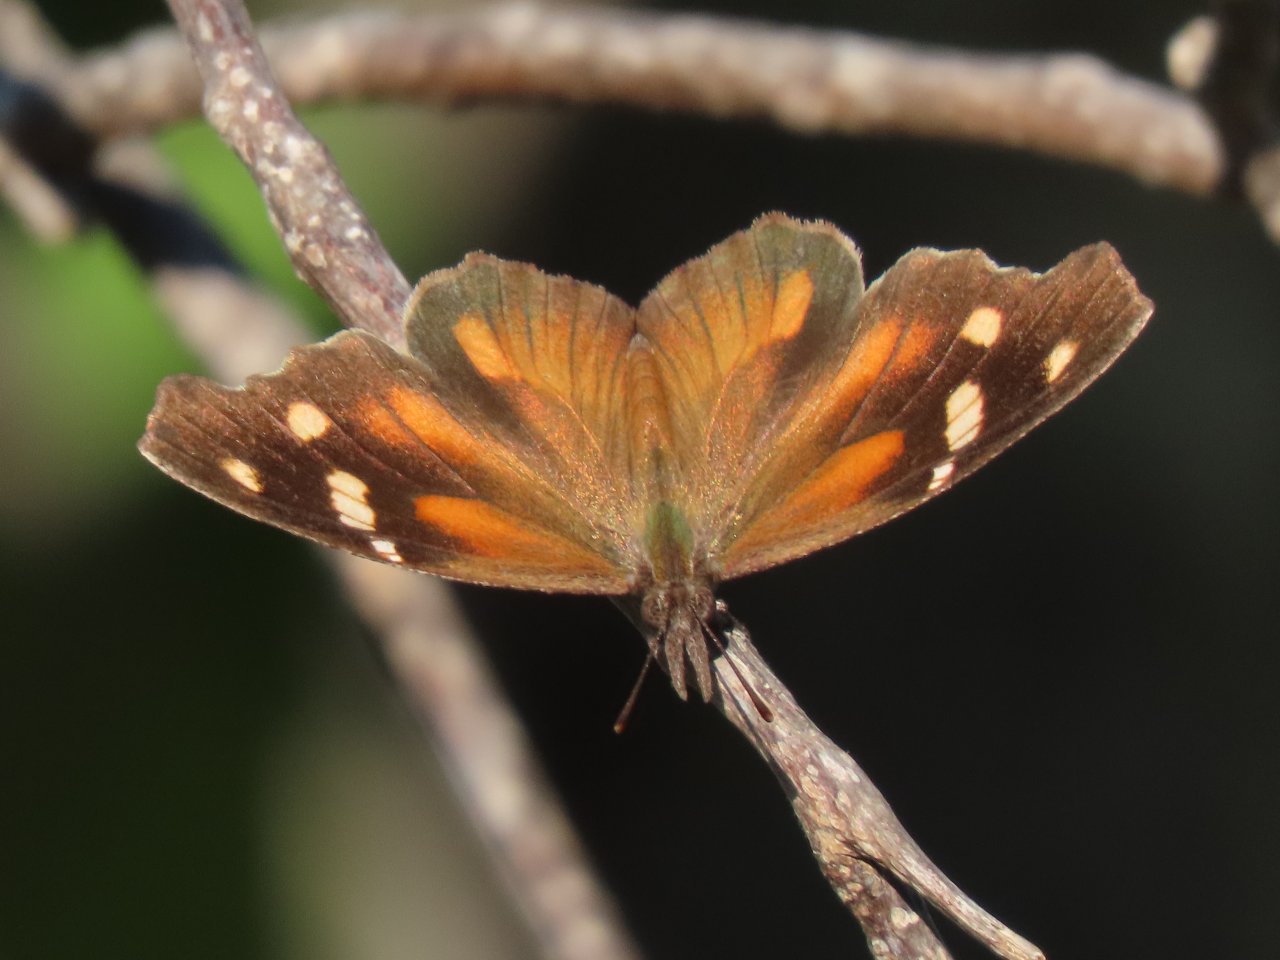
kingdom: Animalia
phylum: Arthropoda
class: Insecta
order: Lepidoptera
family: Nymphalidae
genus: Libytheana
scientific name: Libytheana carinenta
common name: American Snout
